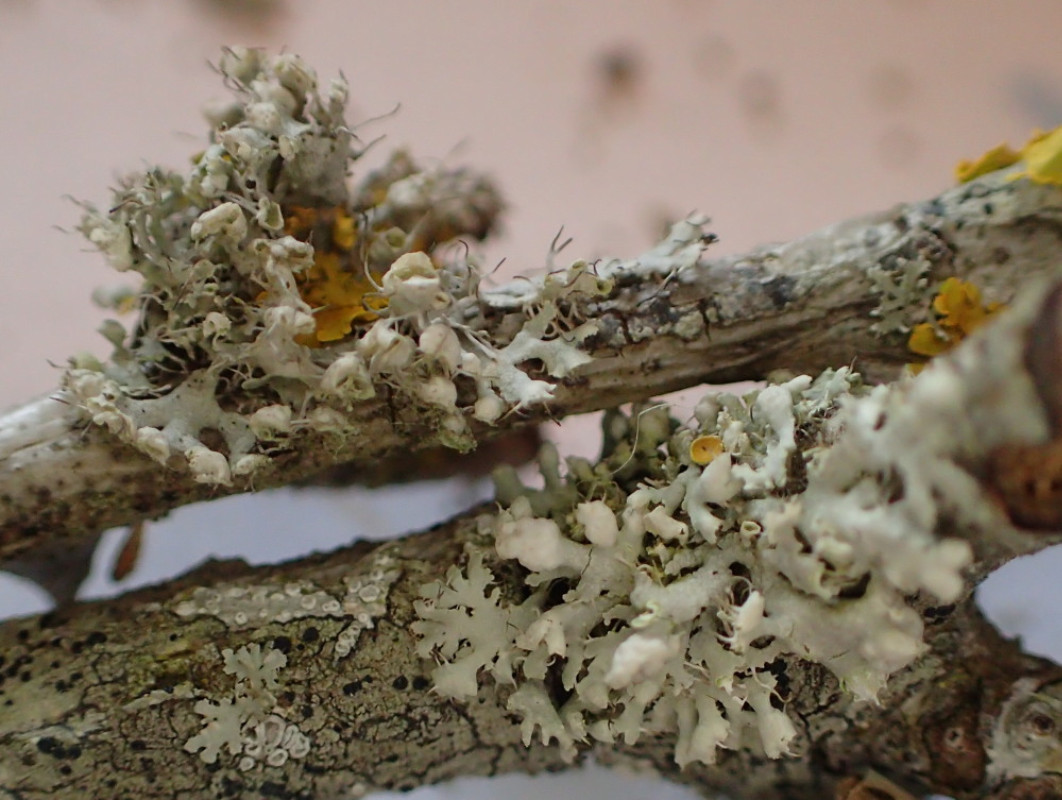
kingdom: Fungi
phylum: Ascomycota
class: Lecanoromycetes
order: Caliciales
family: Physciaceae
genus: Physcia
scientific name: Physcia adscendens
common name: hætte-rosetlav
